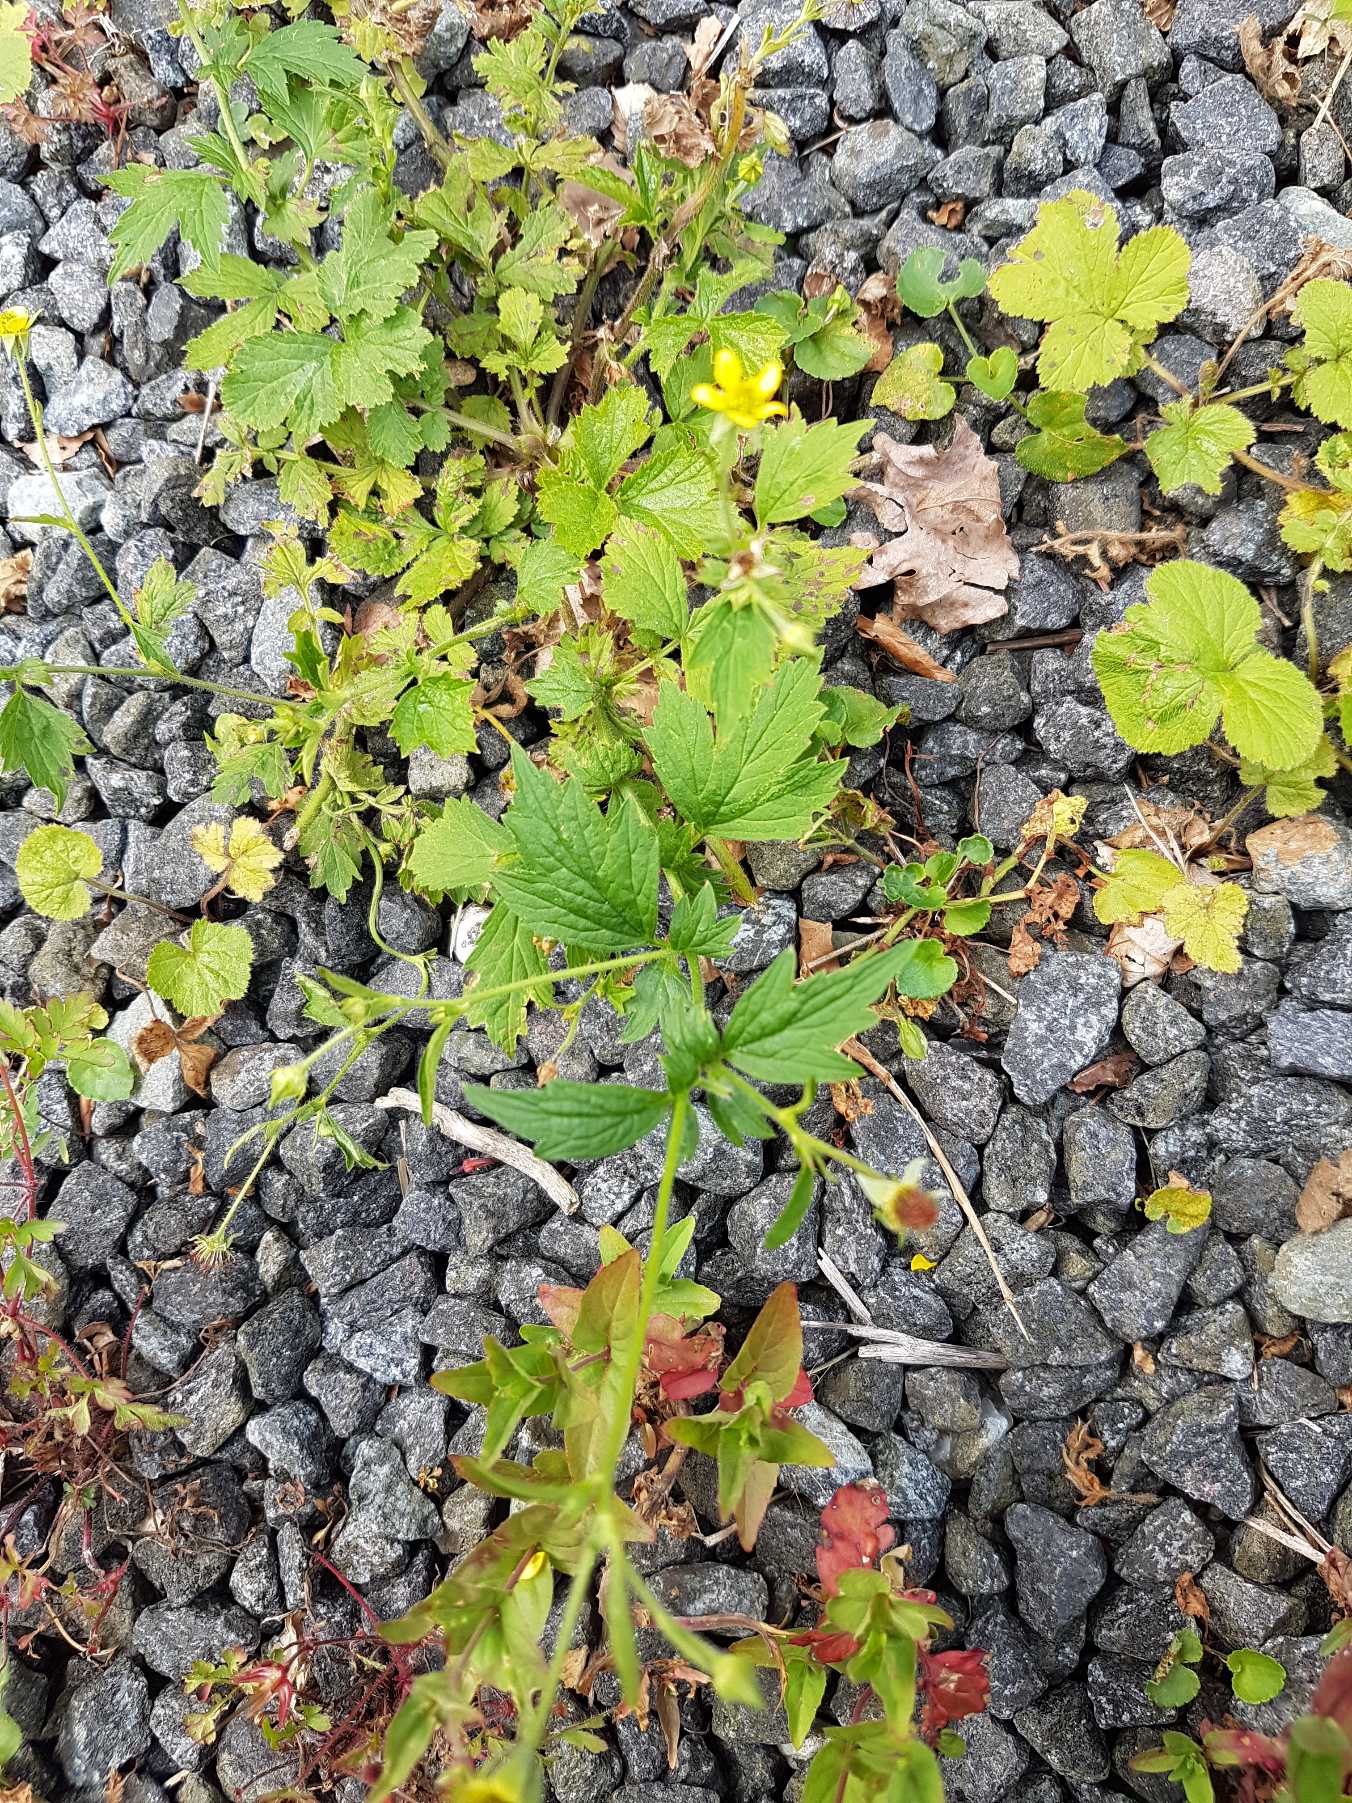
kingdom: Plantae
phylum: Tracheophyta
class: Magnoliopsida
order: Rosales
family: Rosaceae
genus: Geum
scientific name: Geum urbanum
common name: Feber-nellikerod
